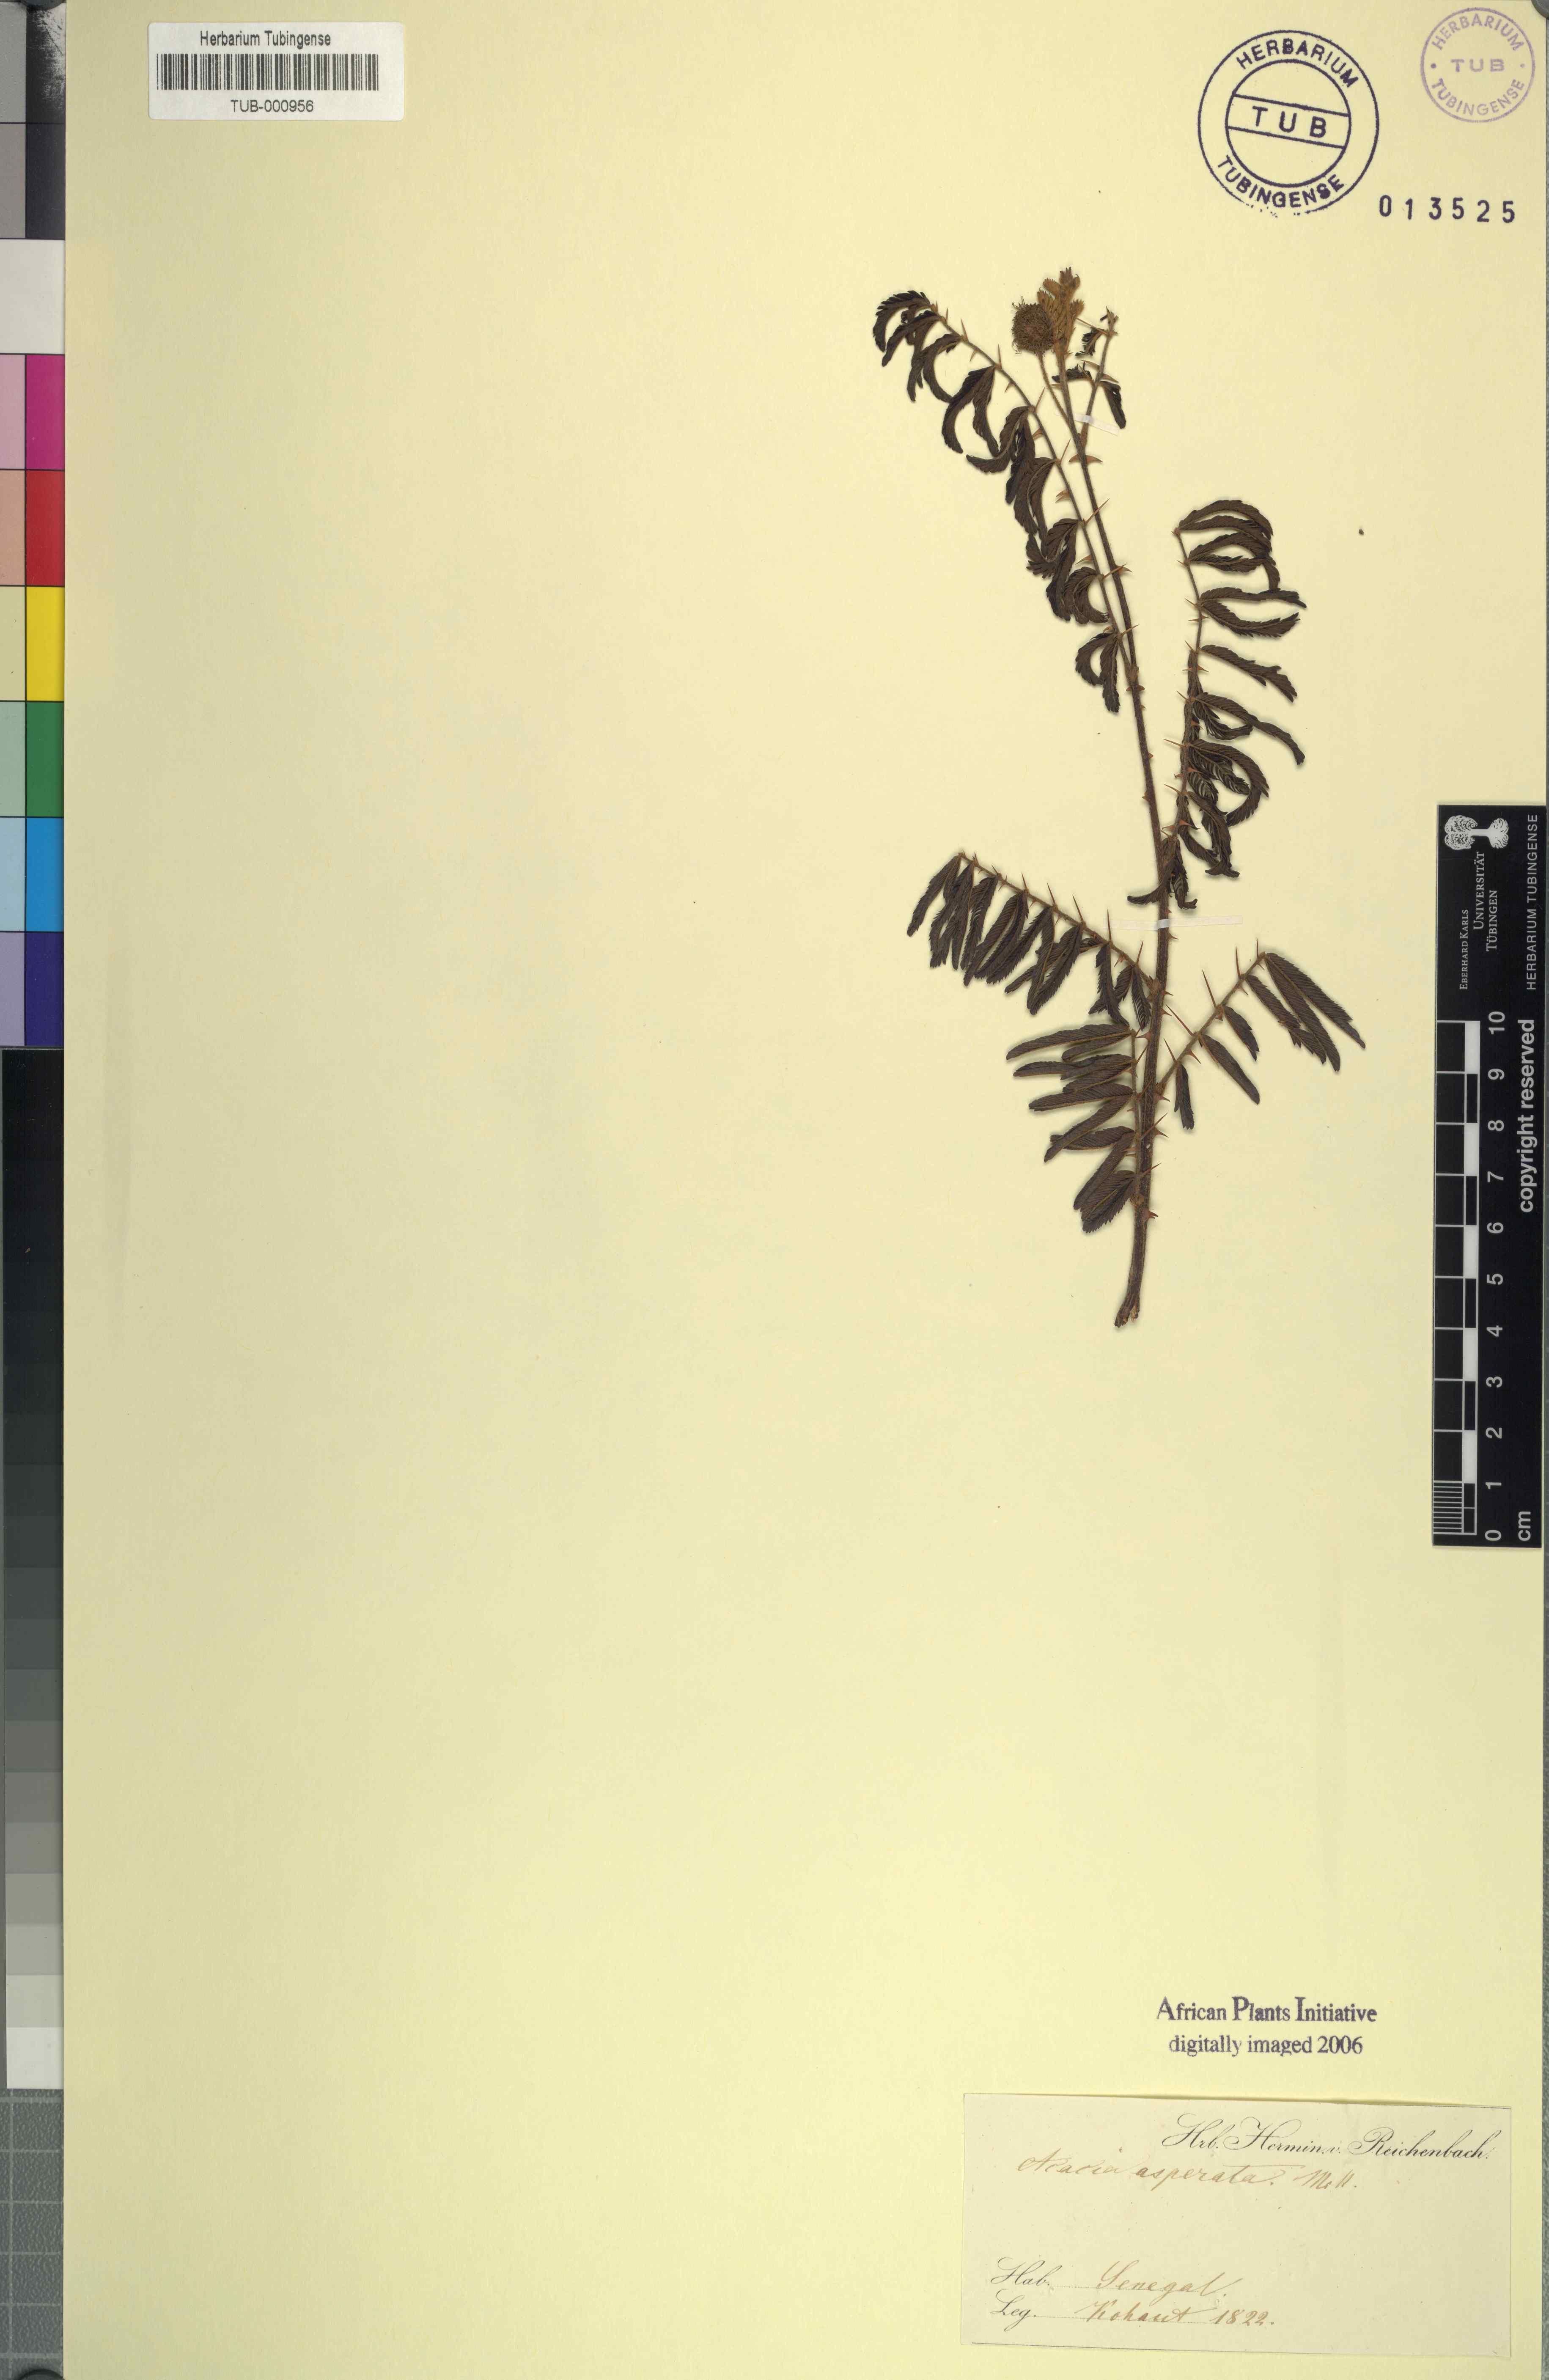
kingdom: Plantae
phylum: Tracheophyta
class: Magnoliopsida
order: Fabales
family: Fabaceae
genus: Acacia
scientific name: Acacia aspera
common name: Rough wattle
